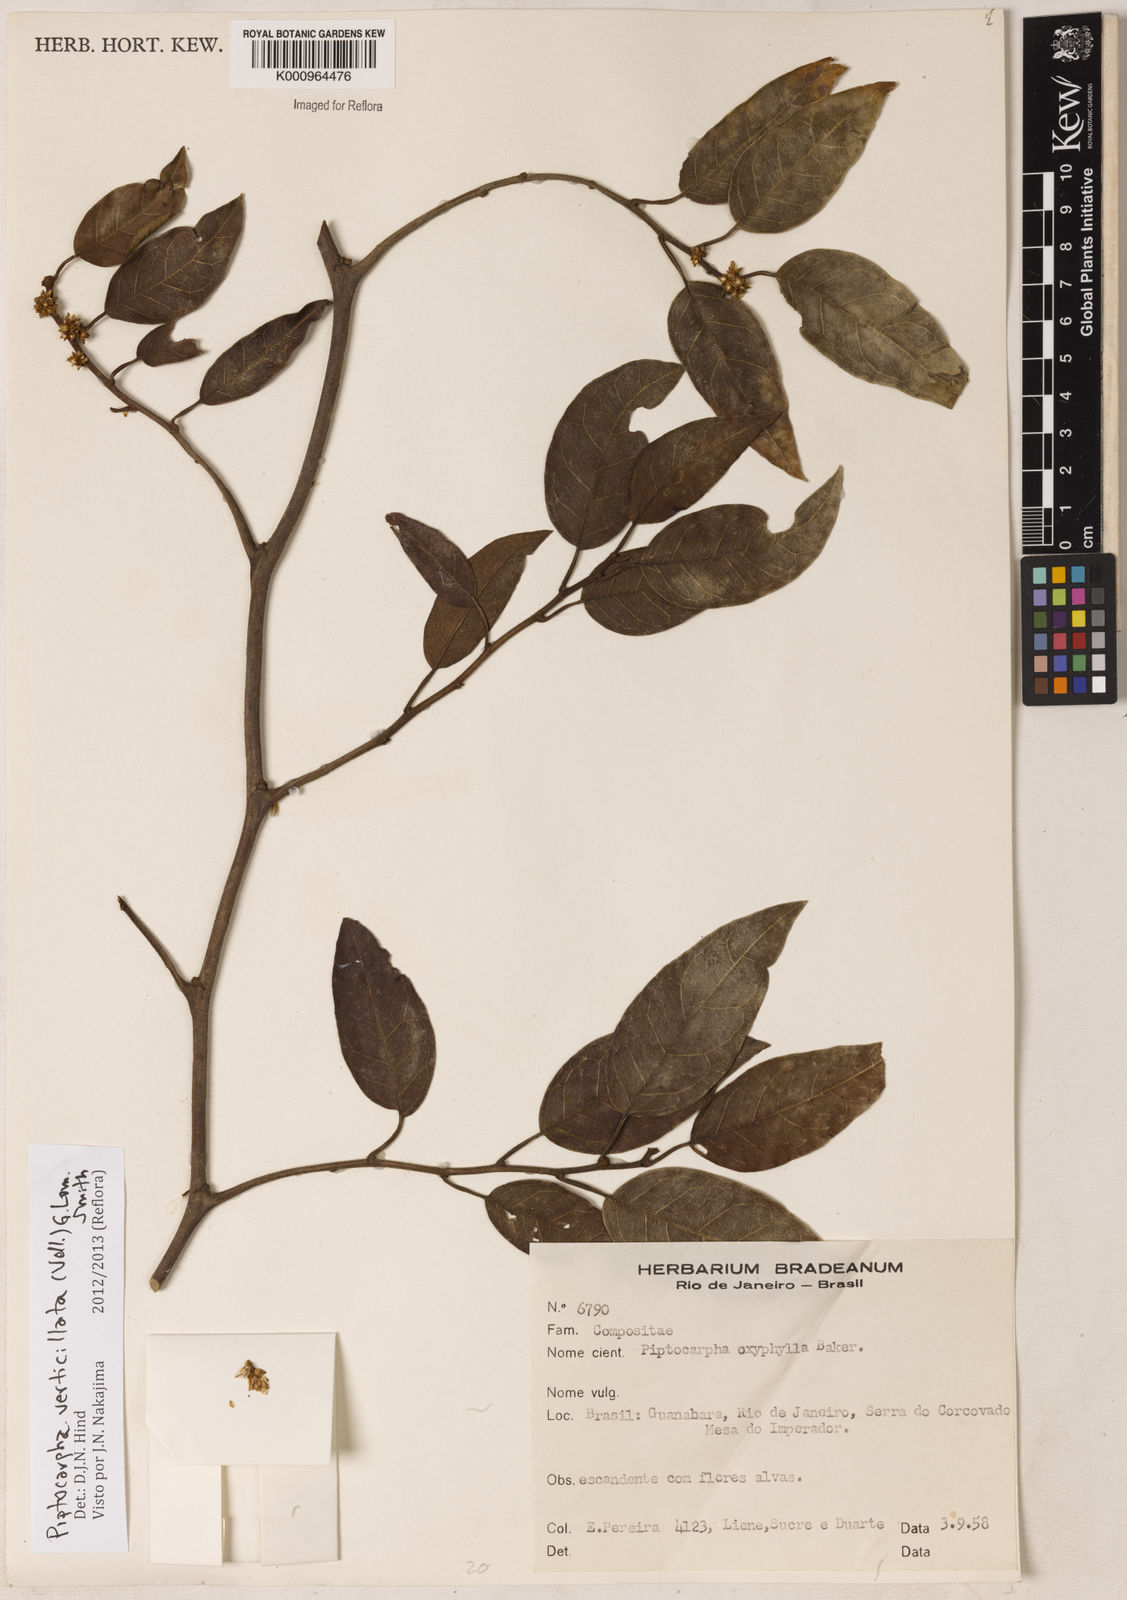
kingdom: Plantae
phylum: Tracheophyta
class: Magnoliopsida
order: Asterales
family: Asteraceae
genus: Piptocarpha
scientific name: Piptocarpha verticillata
